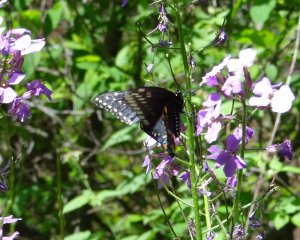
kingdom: Animalia
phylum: Arthropoda
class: Insecta
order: Lepidoptera
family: Papilionidae
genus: Papilio
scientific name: Papilio polyxenes
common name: Black Swallowtail
